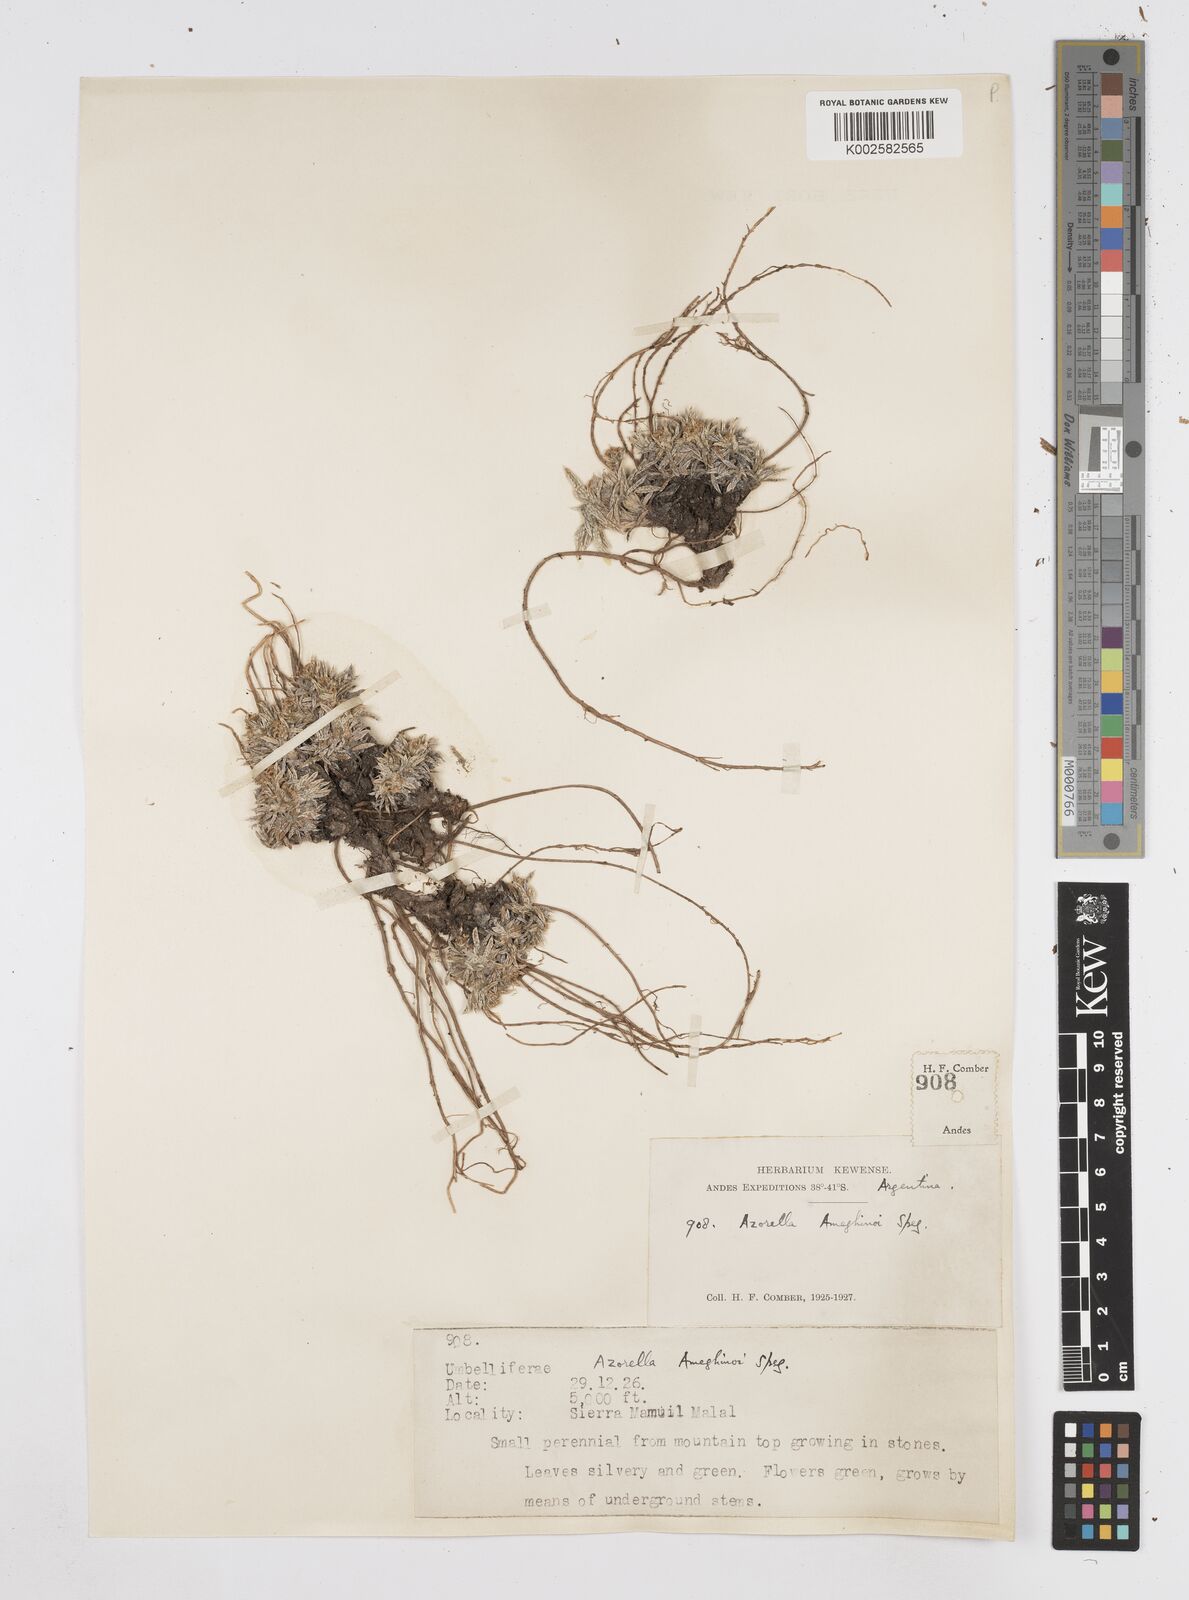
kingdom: Plantae
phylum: Tracheophyta
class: Magnoliopsida
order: Apiales
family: Apiaceae
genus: Azorella
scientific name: Azorella ameghinoi
